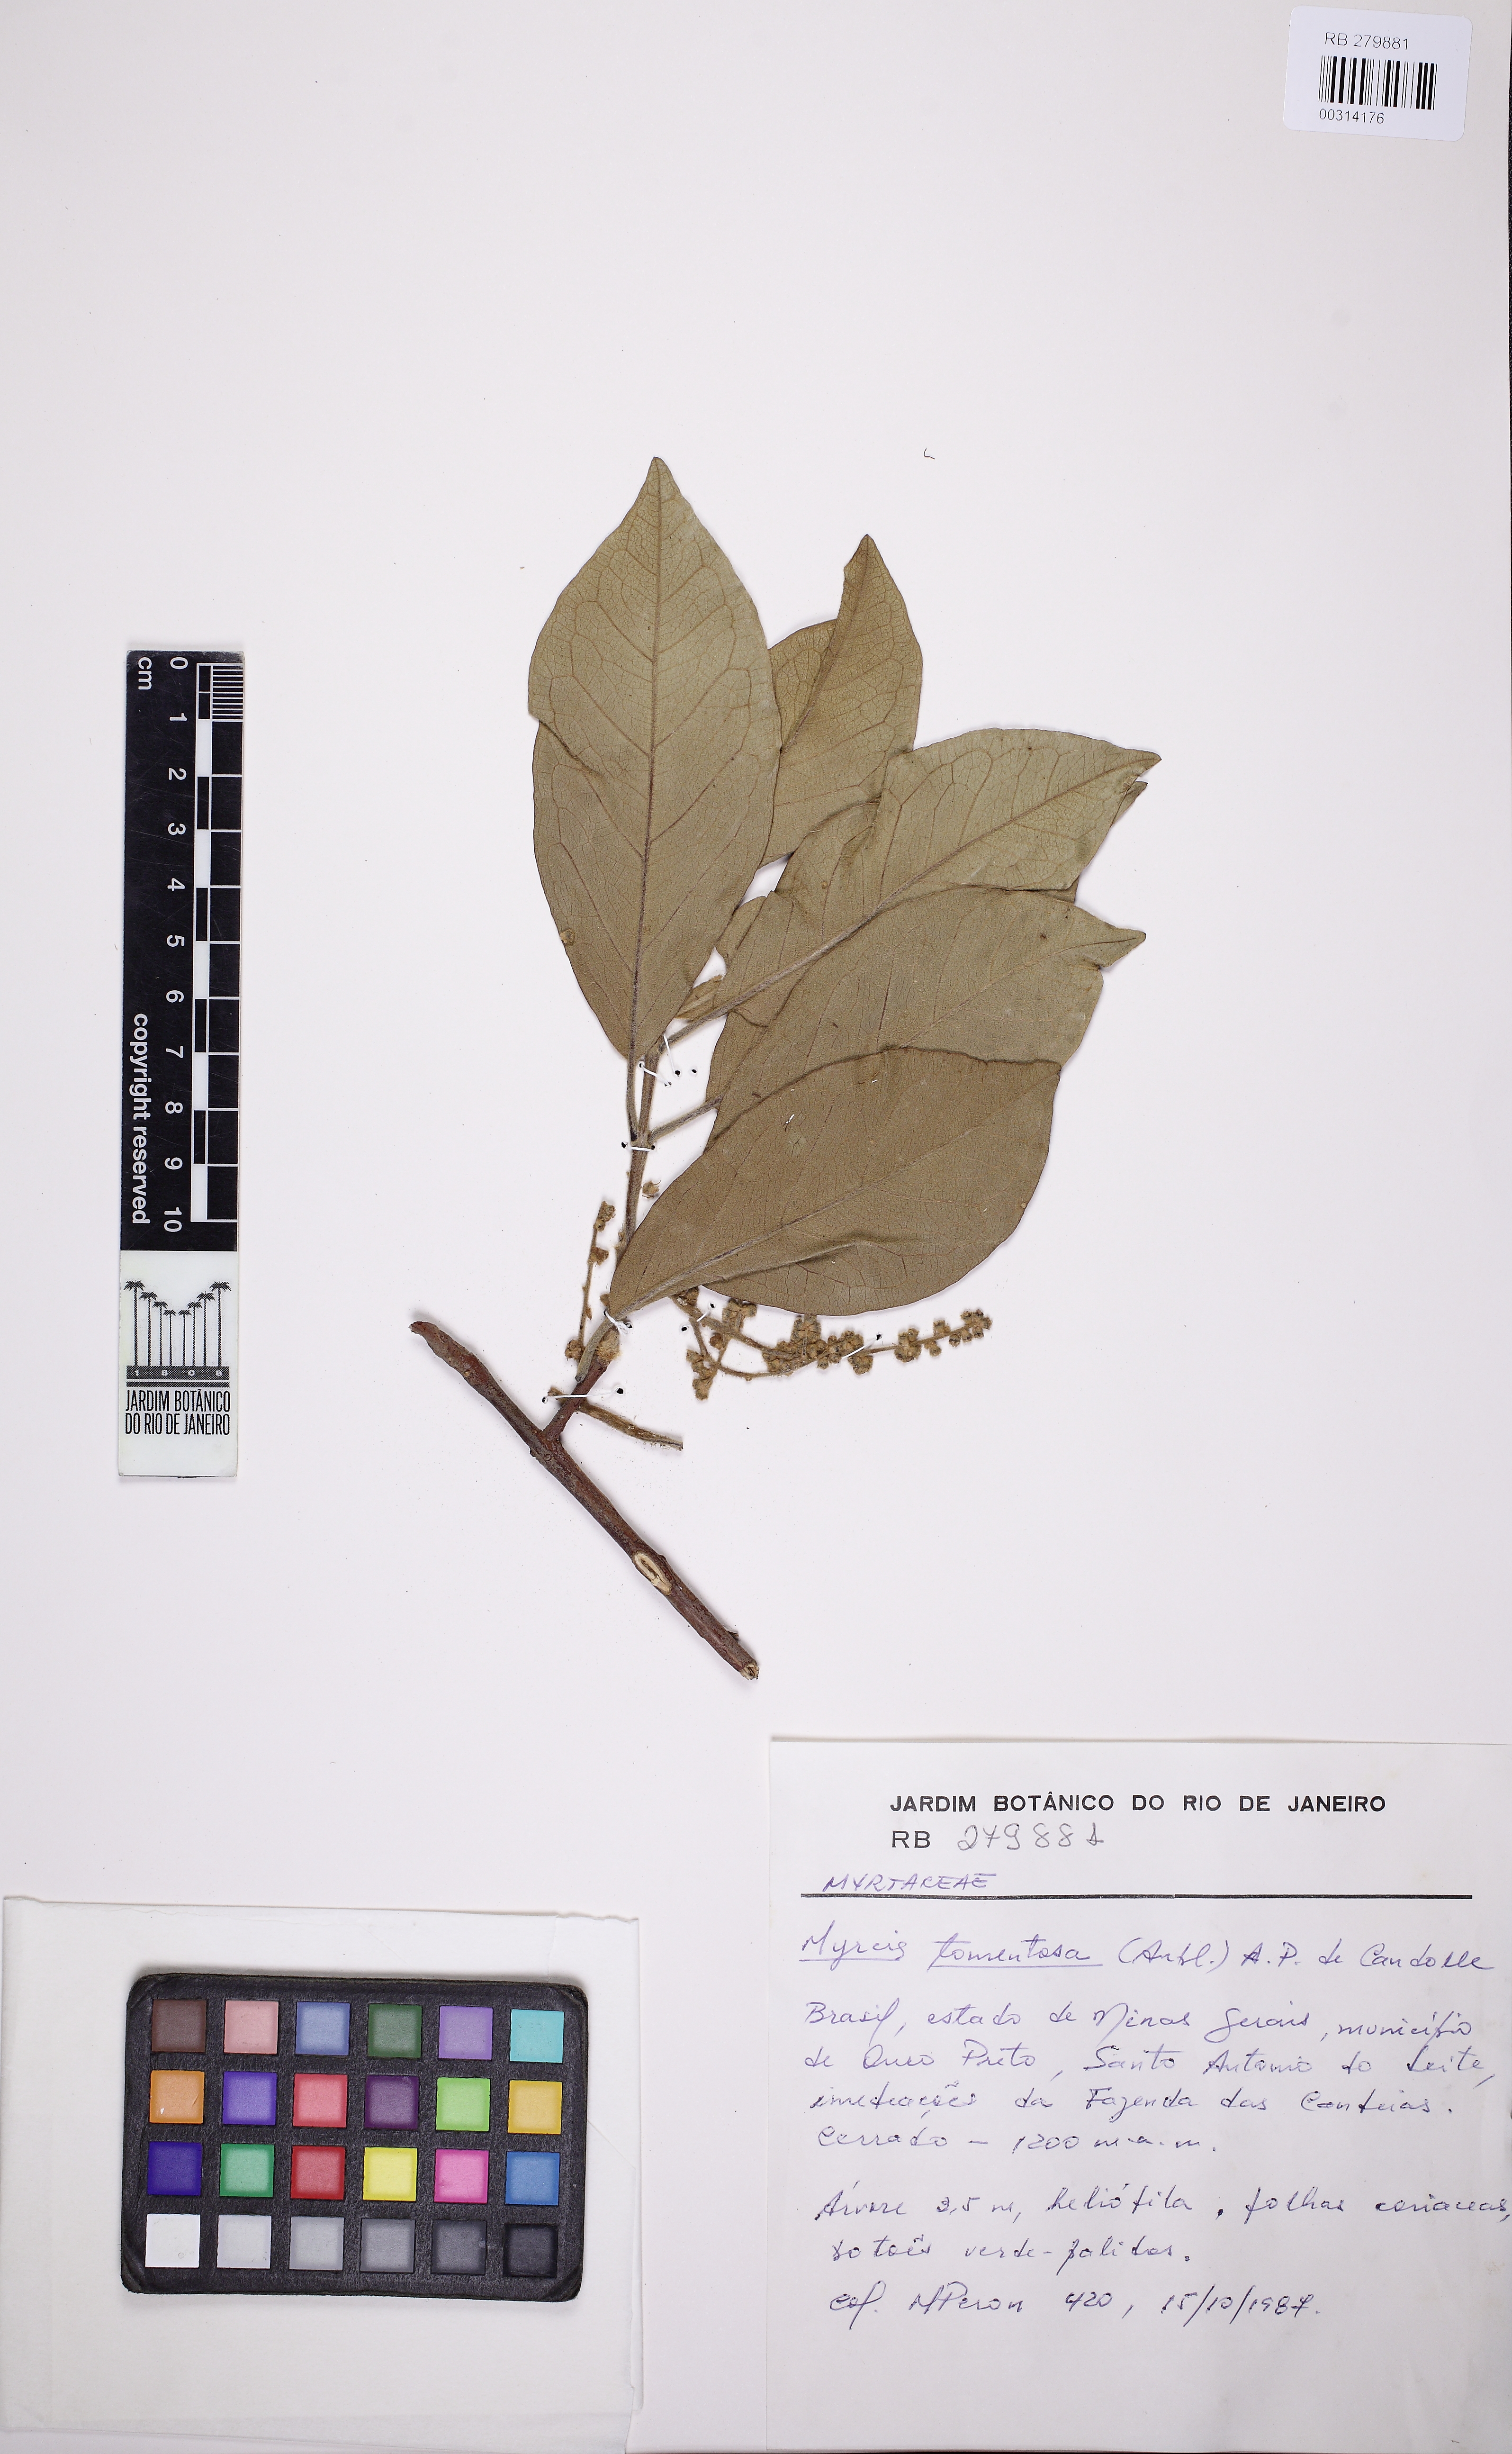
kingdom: Plantae
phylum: Tracheophyta
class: Liliopsida
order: Liliales
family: Smilacaceae
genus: Smilax
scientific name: Smilax
